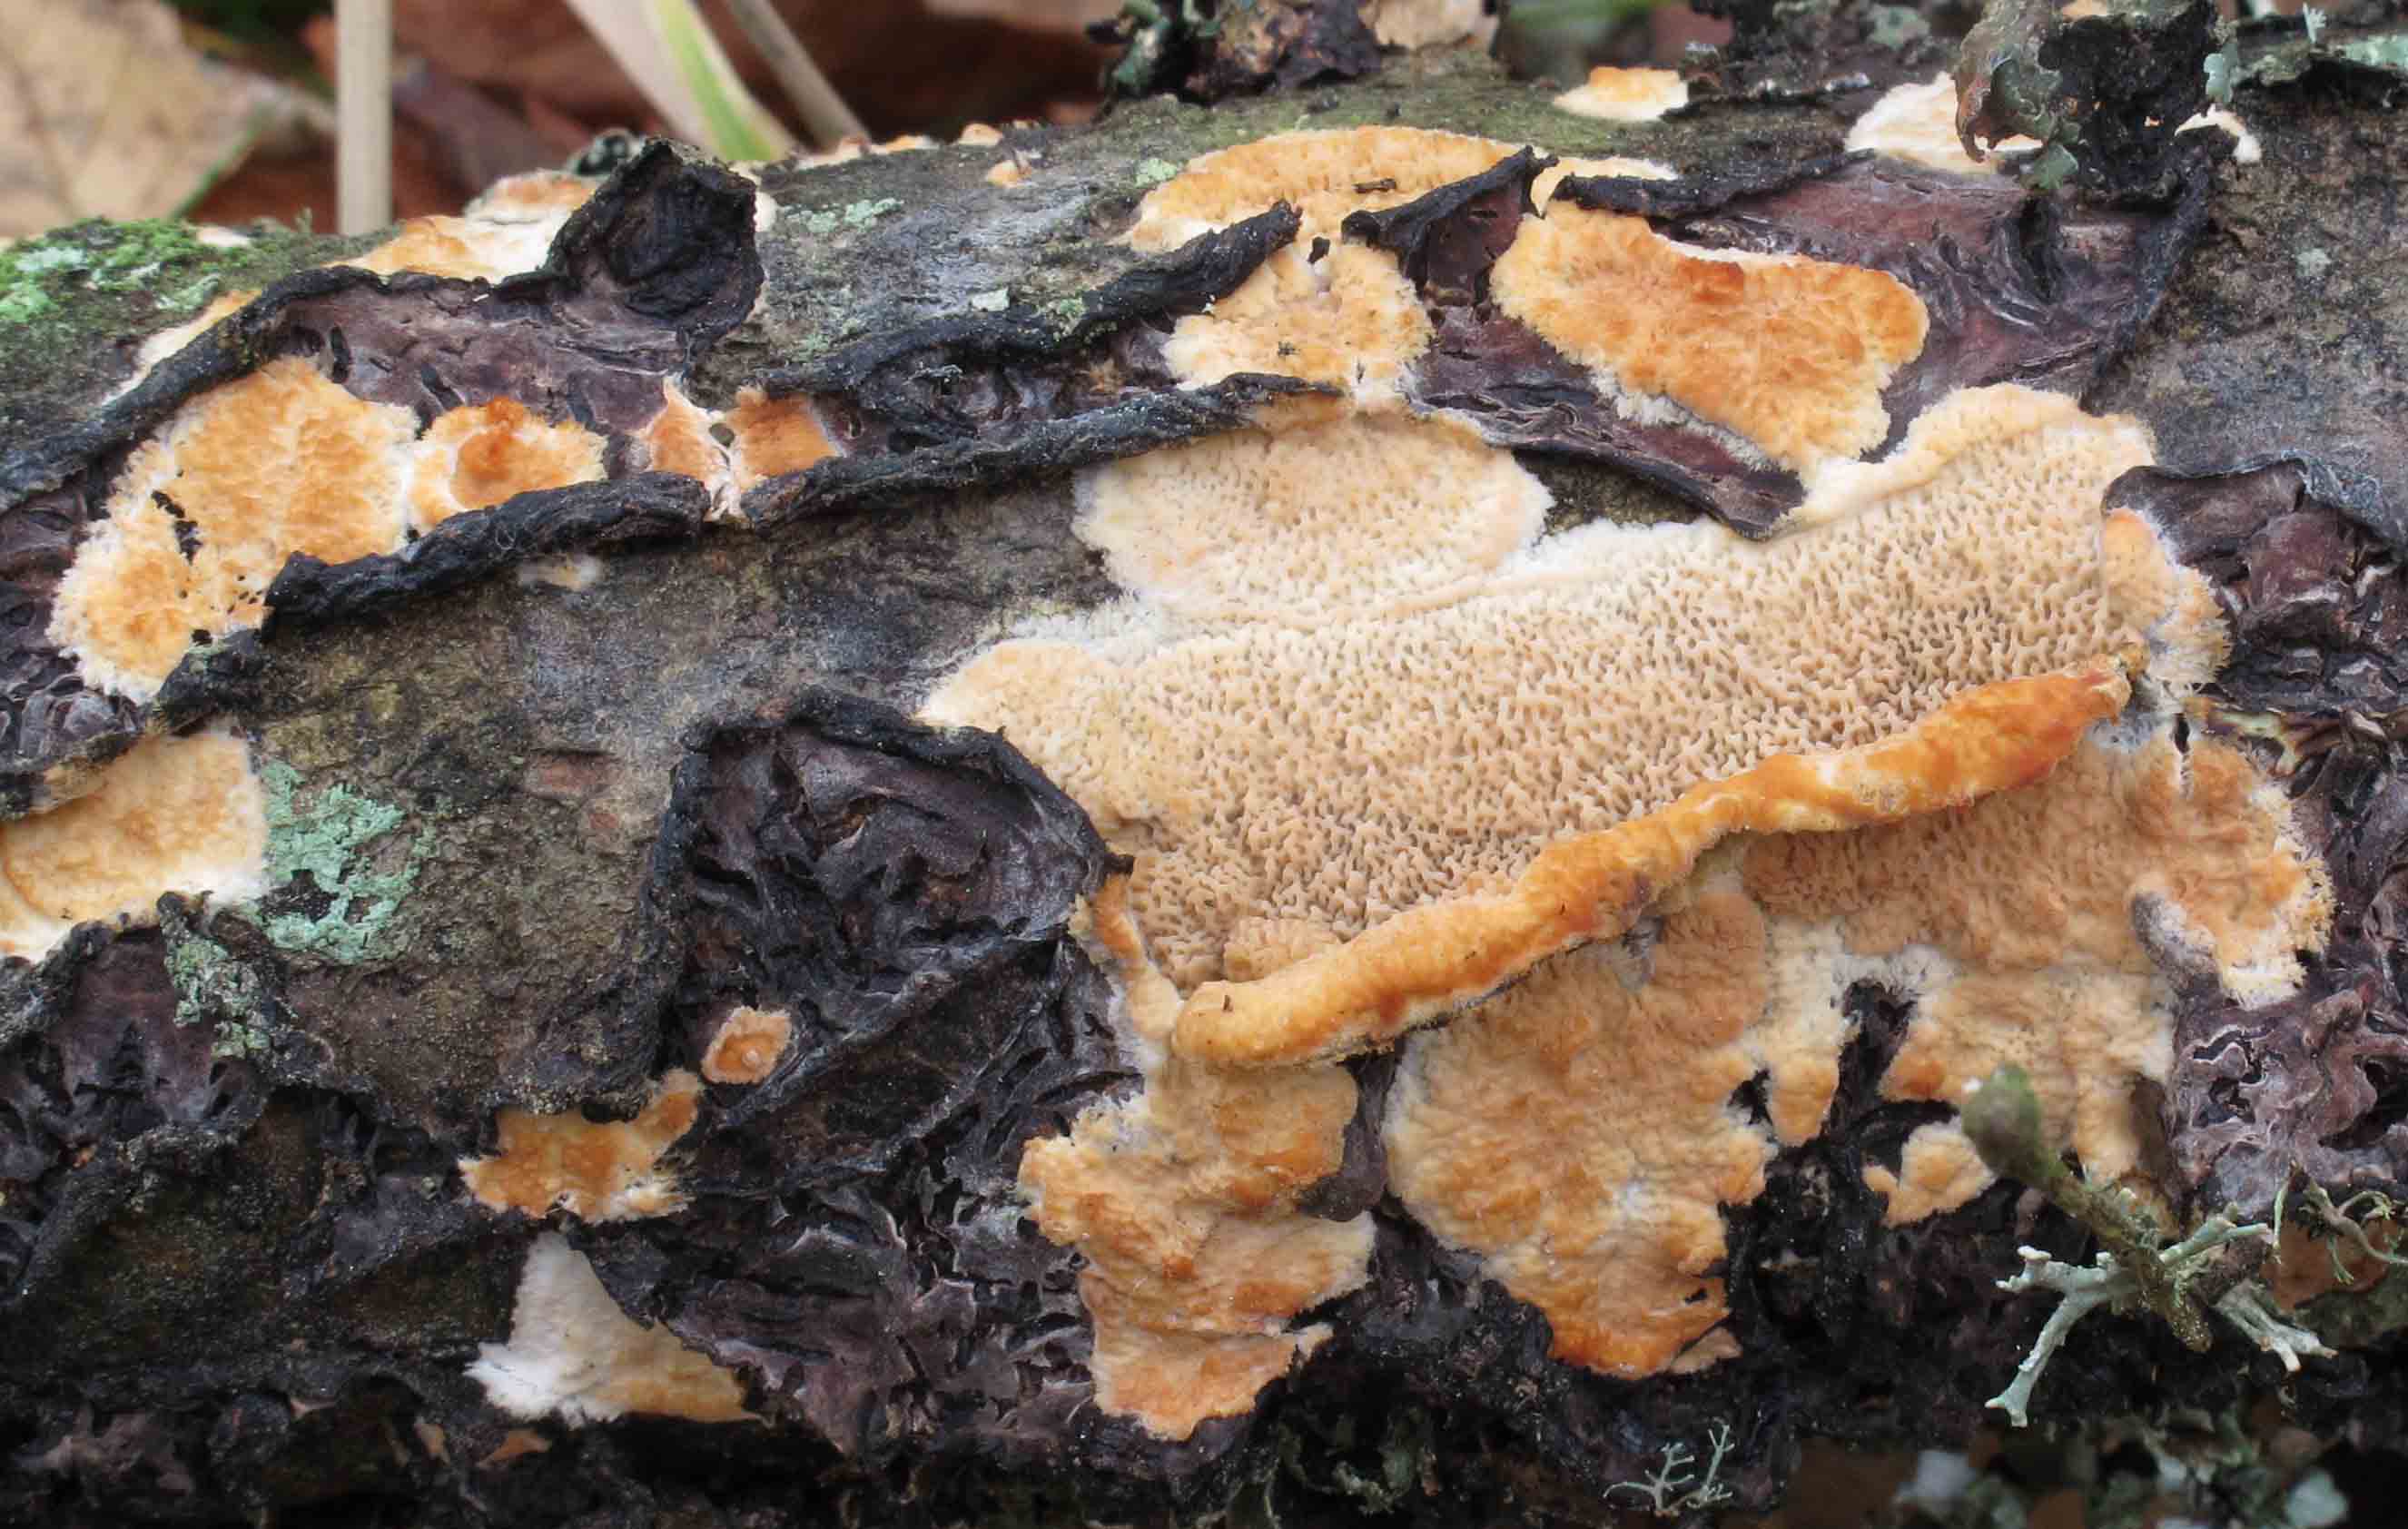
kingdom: Fungi
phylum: Basidiomycota
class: Agaricomycetes
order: Polyporales
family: Meruliaceae
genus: Phlebia
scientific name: Phlebia rufa
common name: ege-åresvamp
